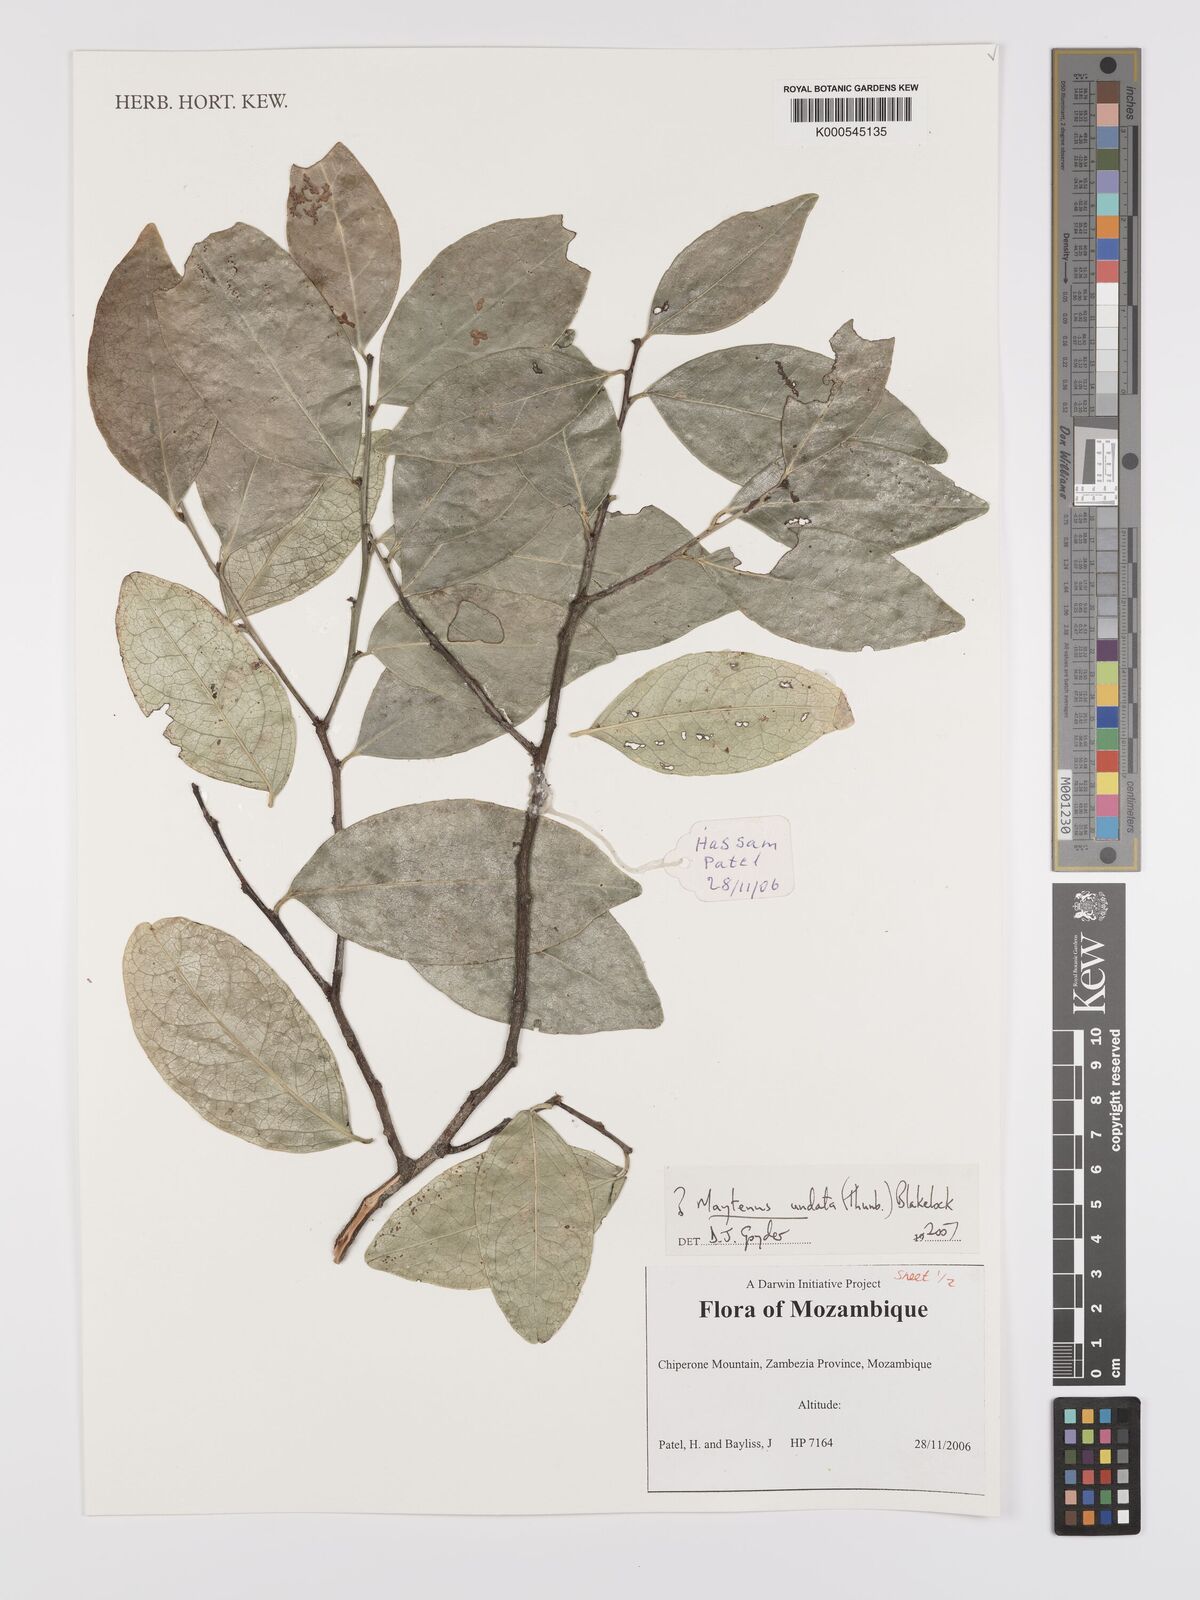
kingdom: Plantae
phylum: Tracheophyta
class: Magnoliopsida
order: Celastrales
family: Celastraceae
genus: Gymnosporia
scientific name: Gymnosporia undata
